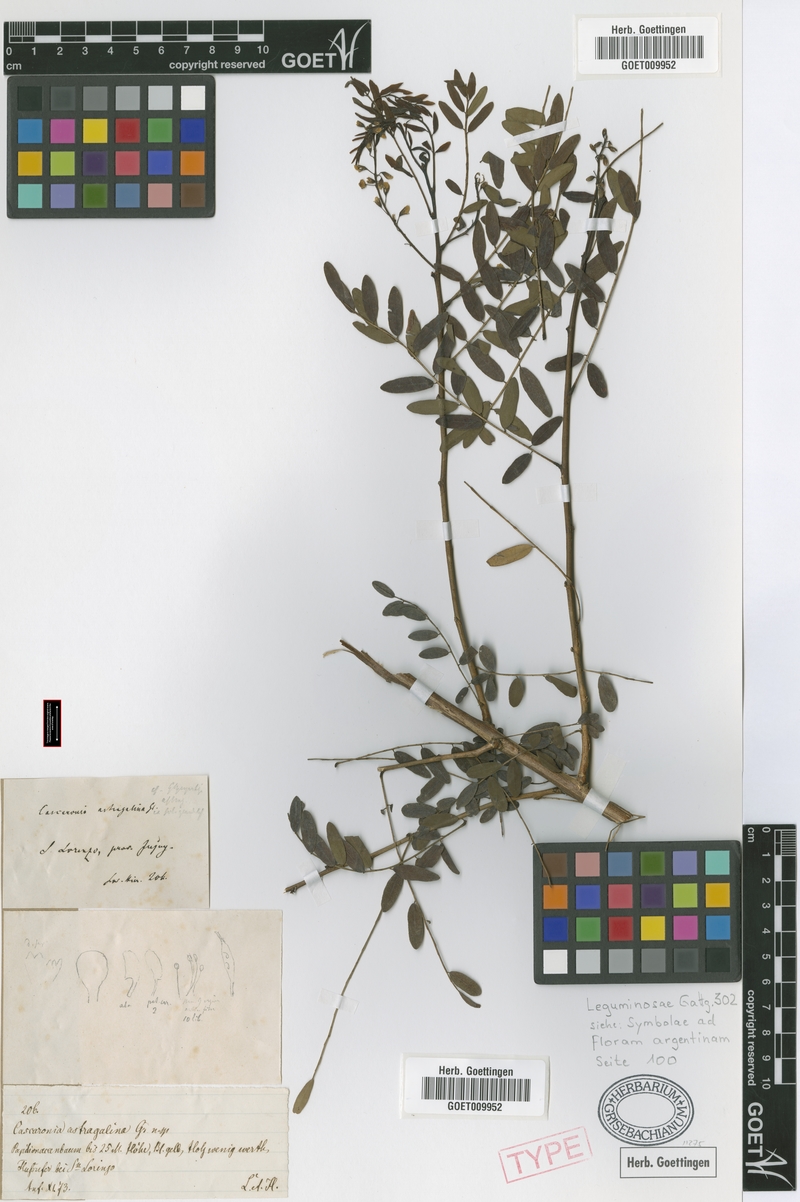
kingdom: Plantae
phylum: Tracheophyta
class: Magnoliopsida
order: Fabales
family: Fabaceae
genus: Cascaronia
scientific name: Cascaronia astragalina
